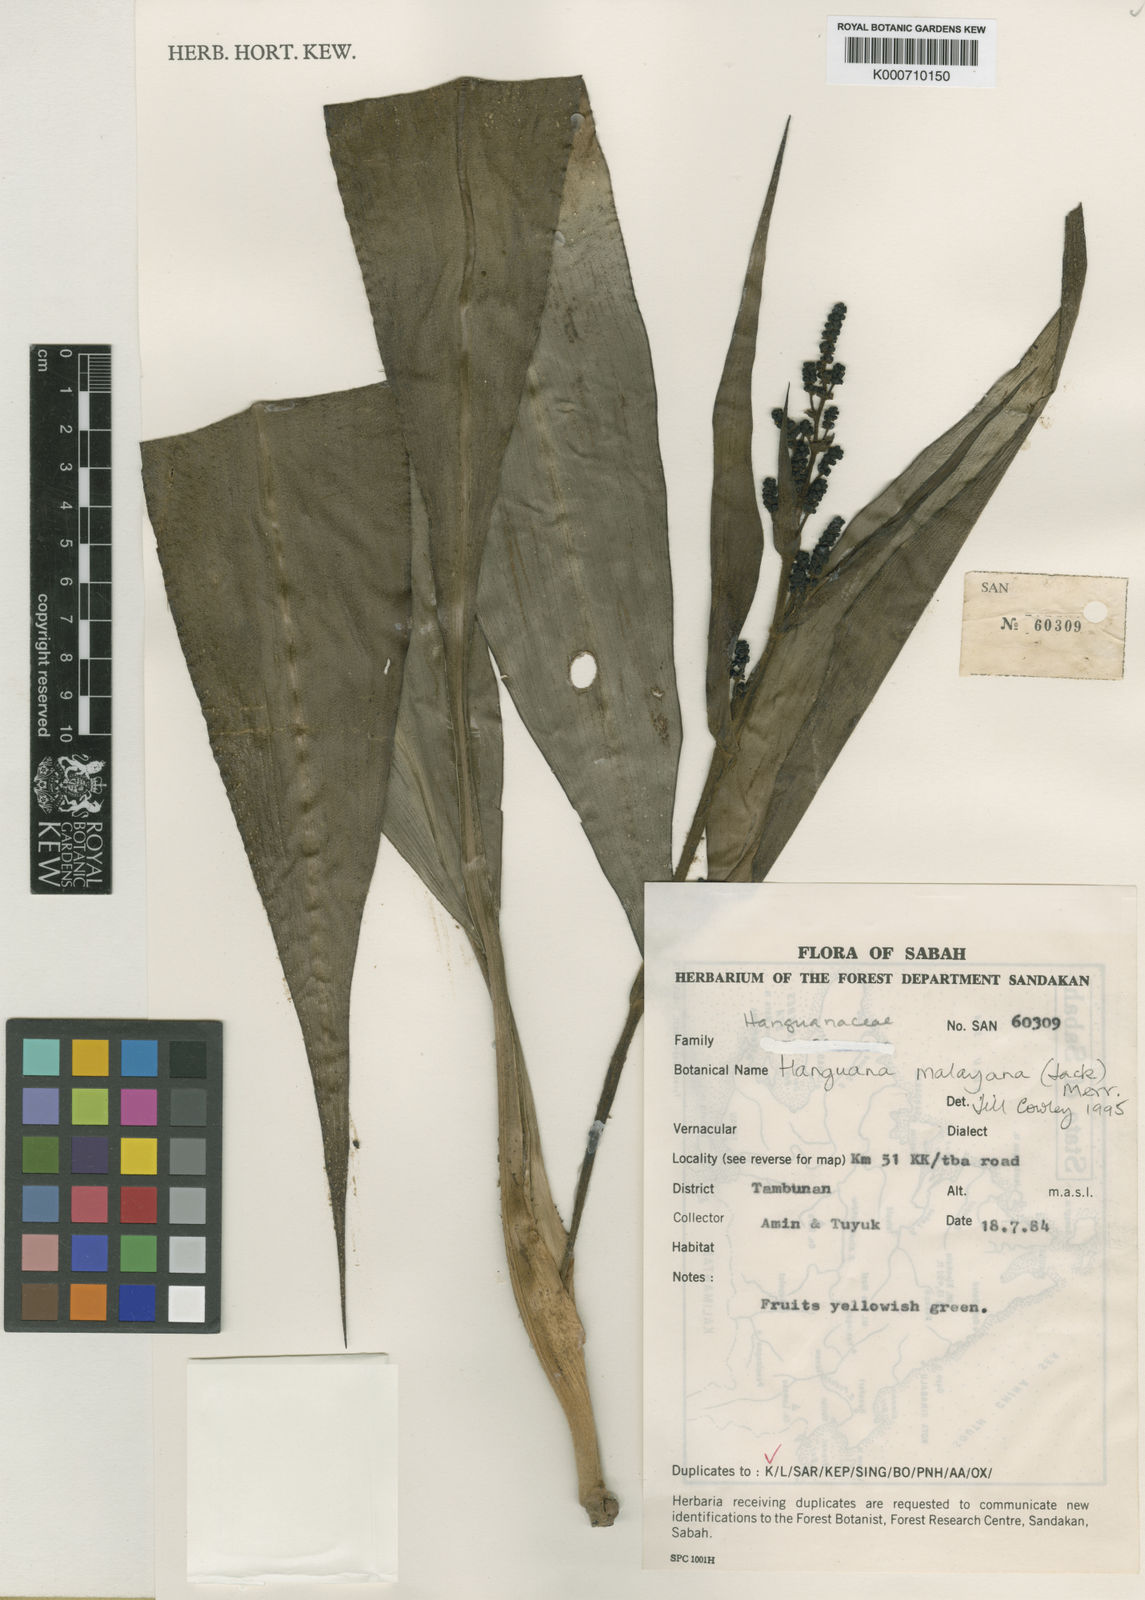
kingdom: Plantae
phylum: Tracheophyta
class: Liliopsida
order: Commelinales
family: Hanguanaceae
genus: Hanguana
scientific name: Hanguana malayana
